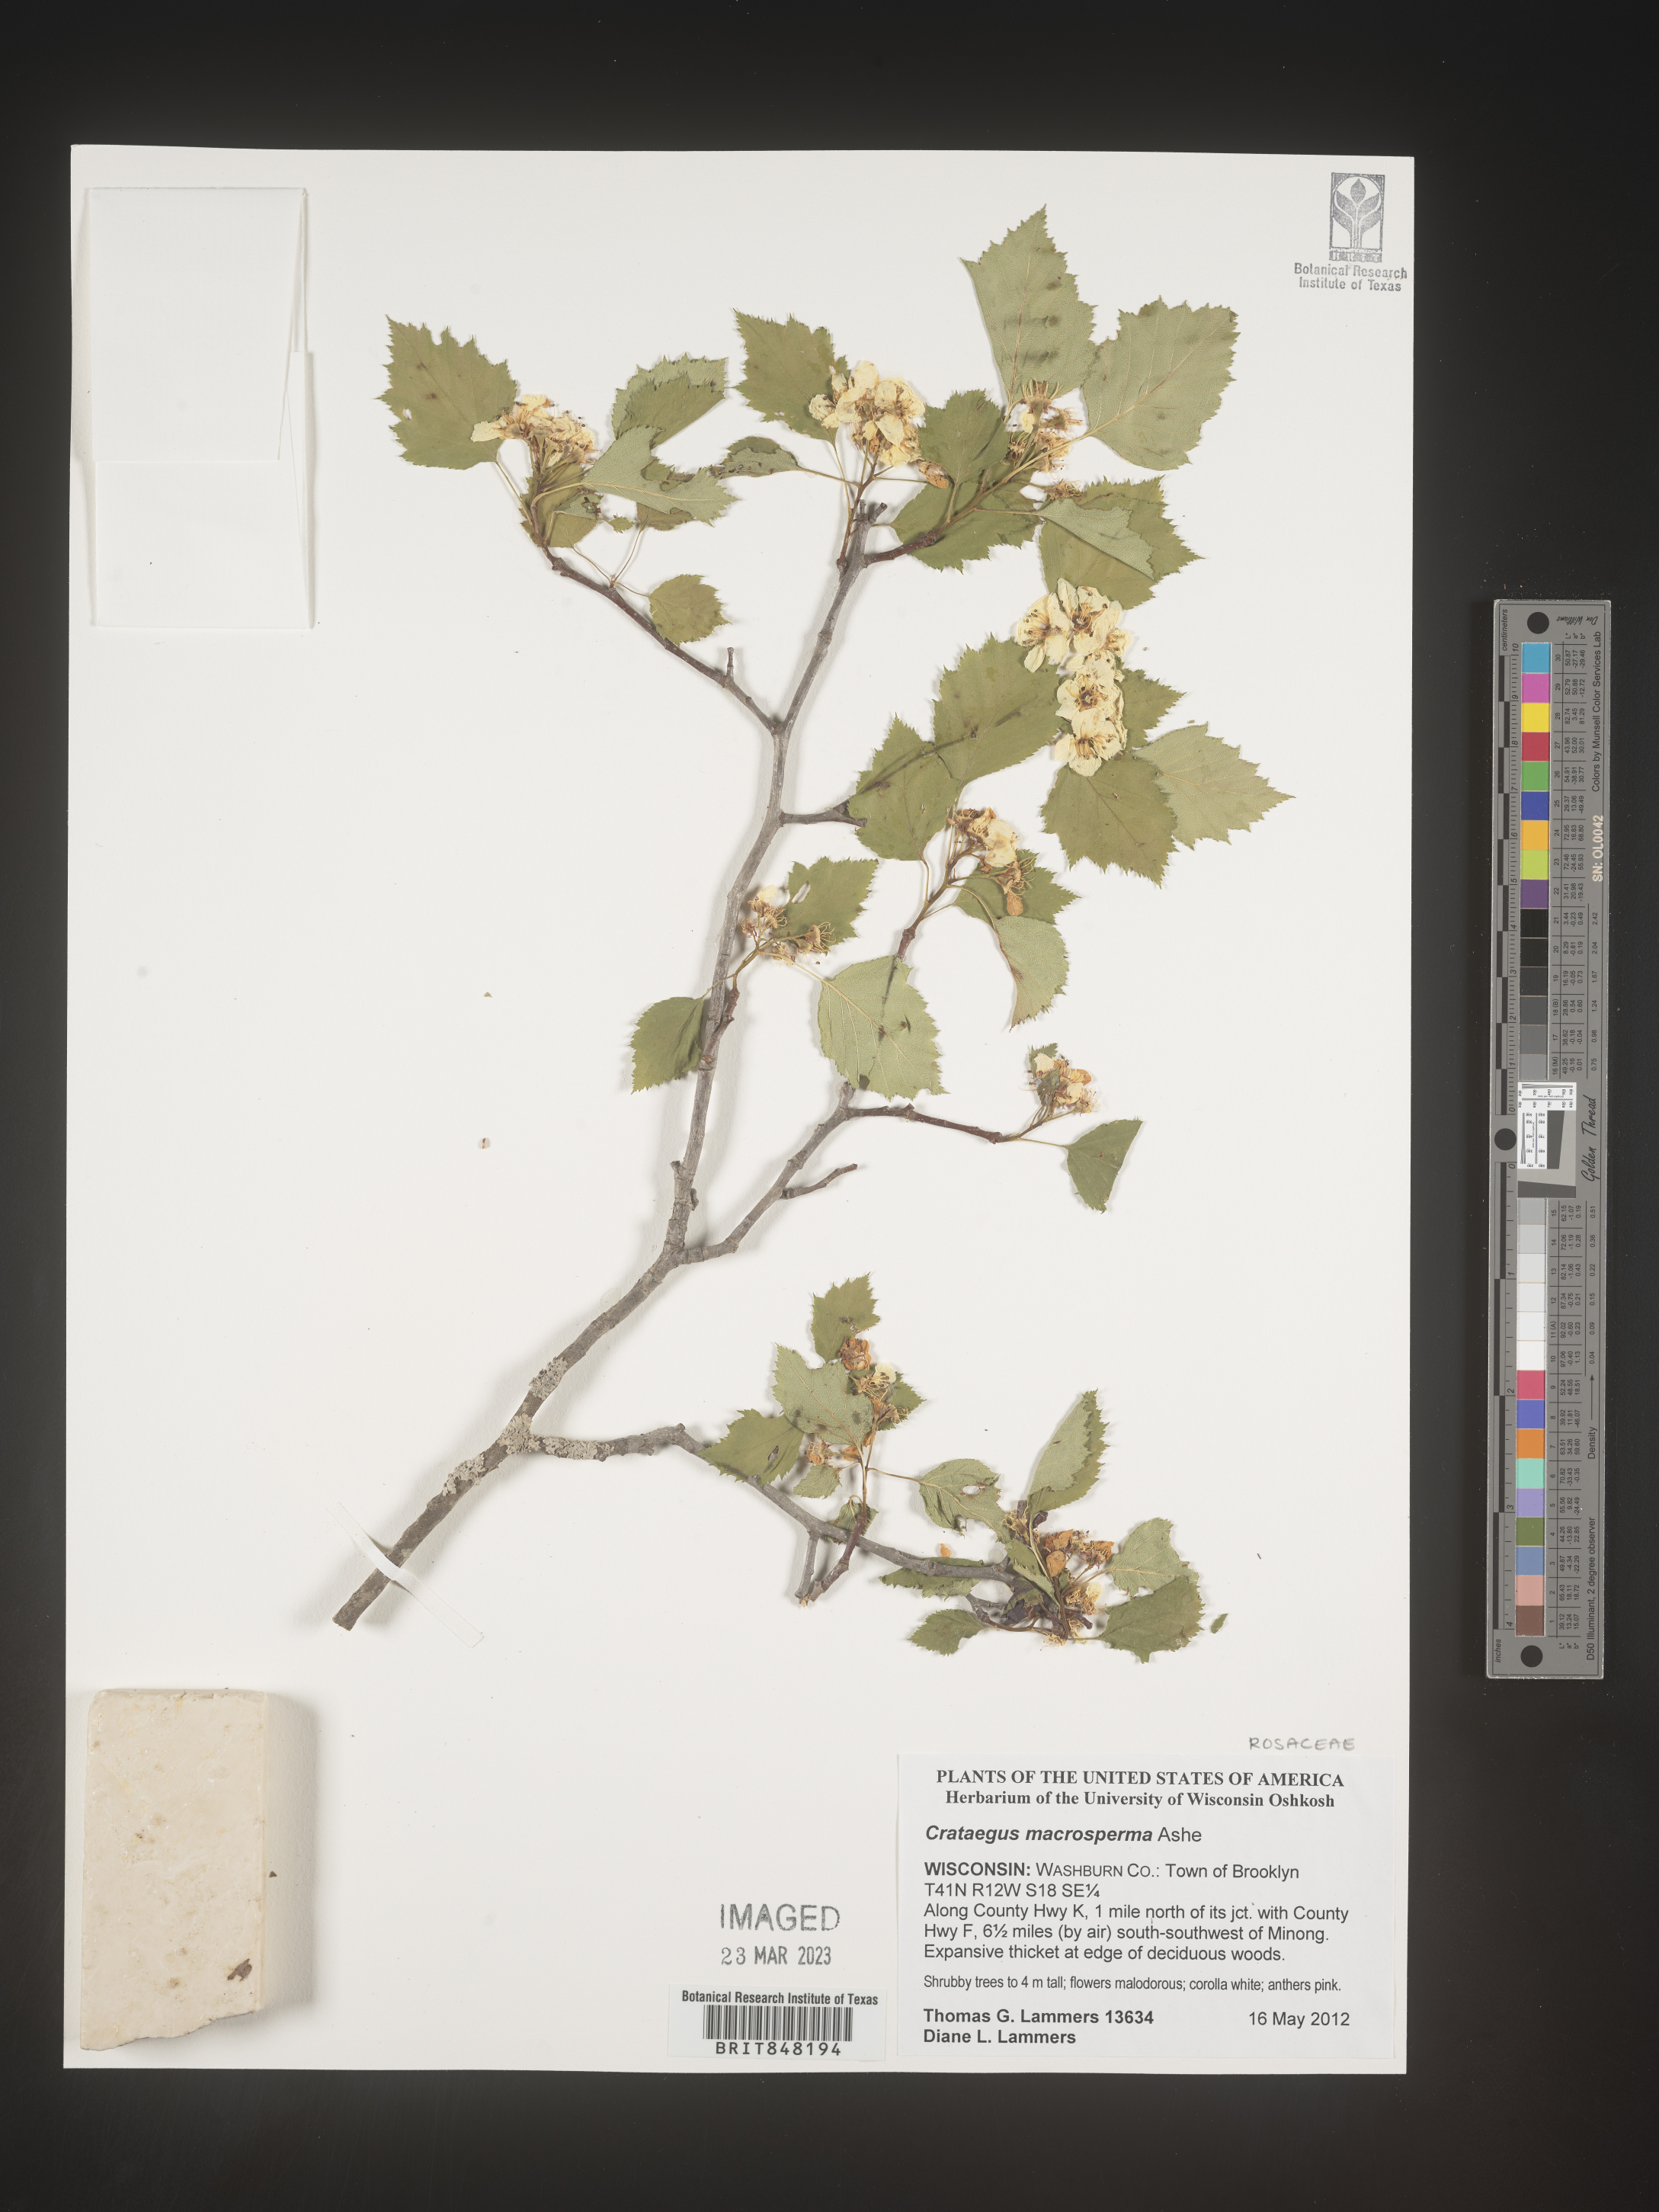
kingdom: Plantae
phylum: Tracheophyta
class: Magnoliopsida
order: Rosales
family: Rosaceae
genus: Crataegus
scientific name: Crataegus macrosperma
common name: Variable hawthorn
